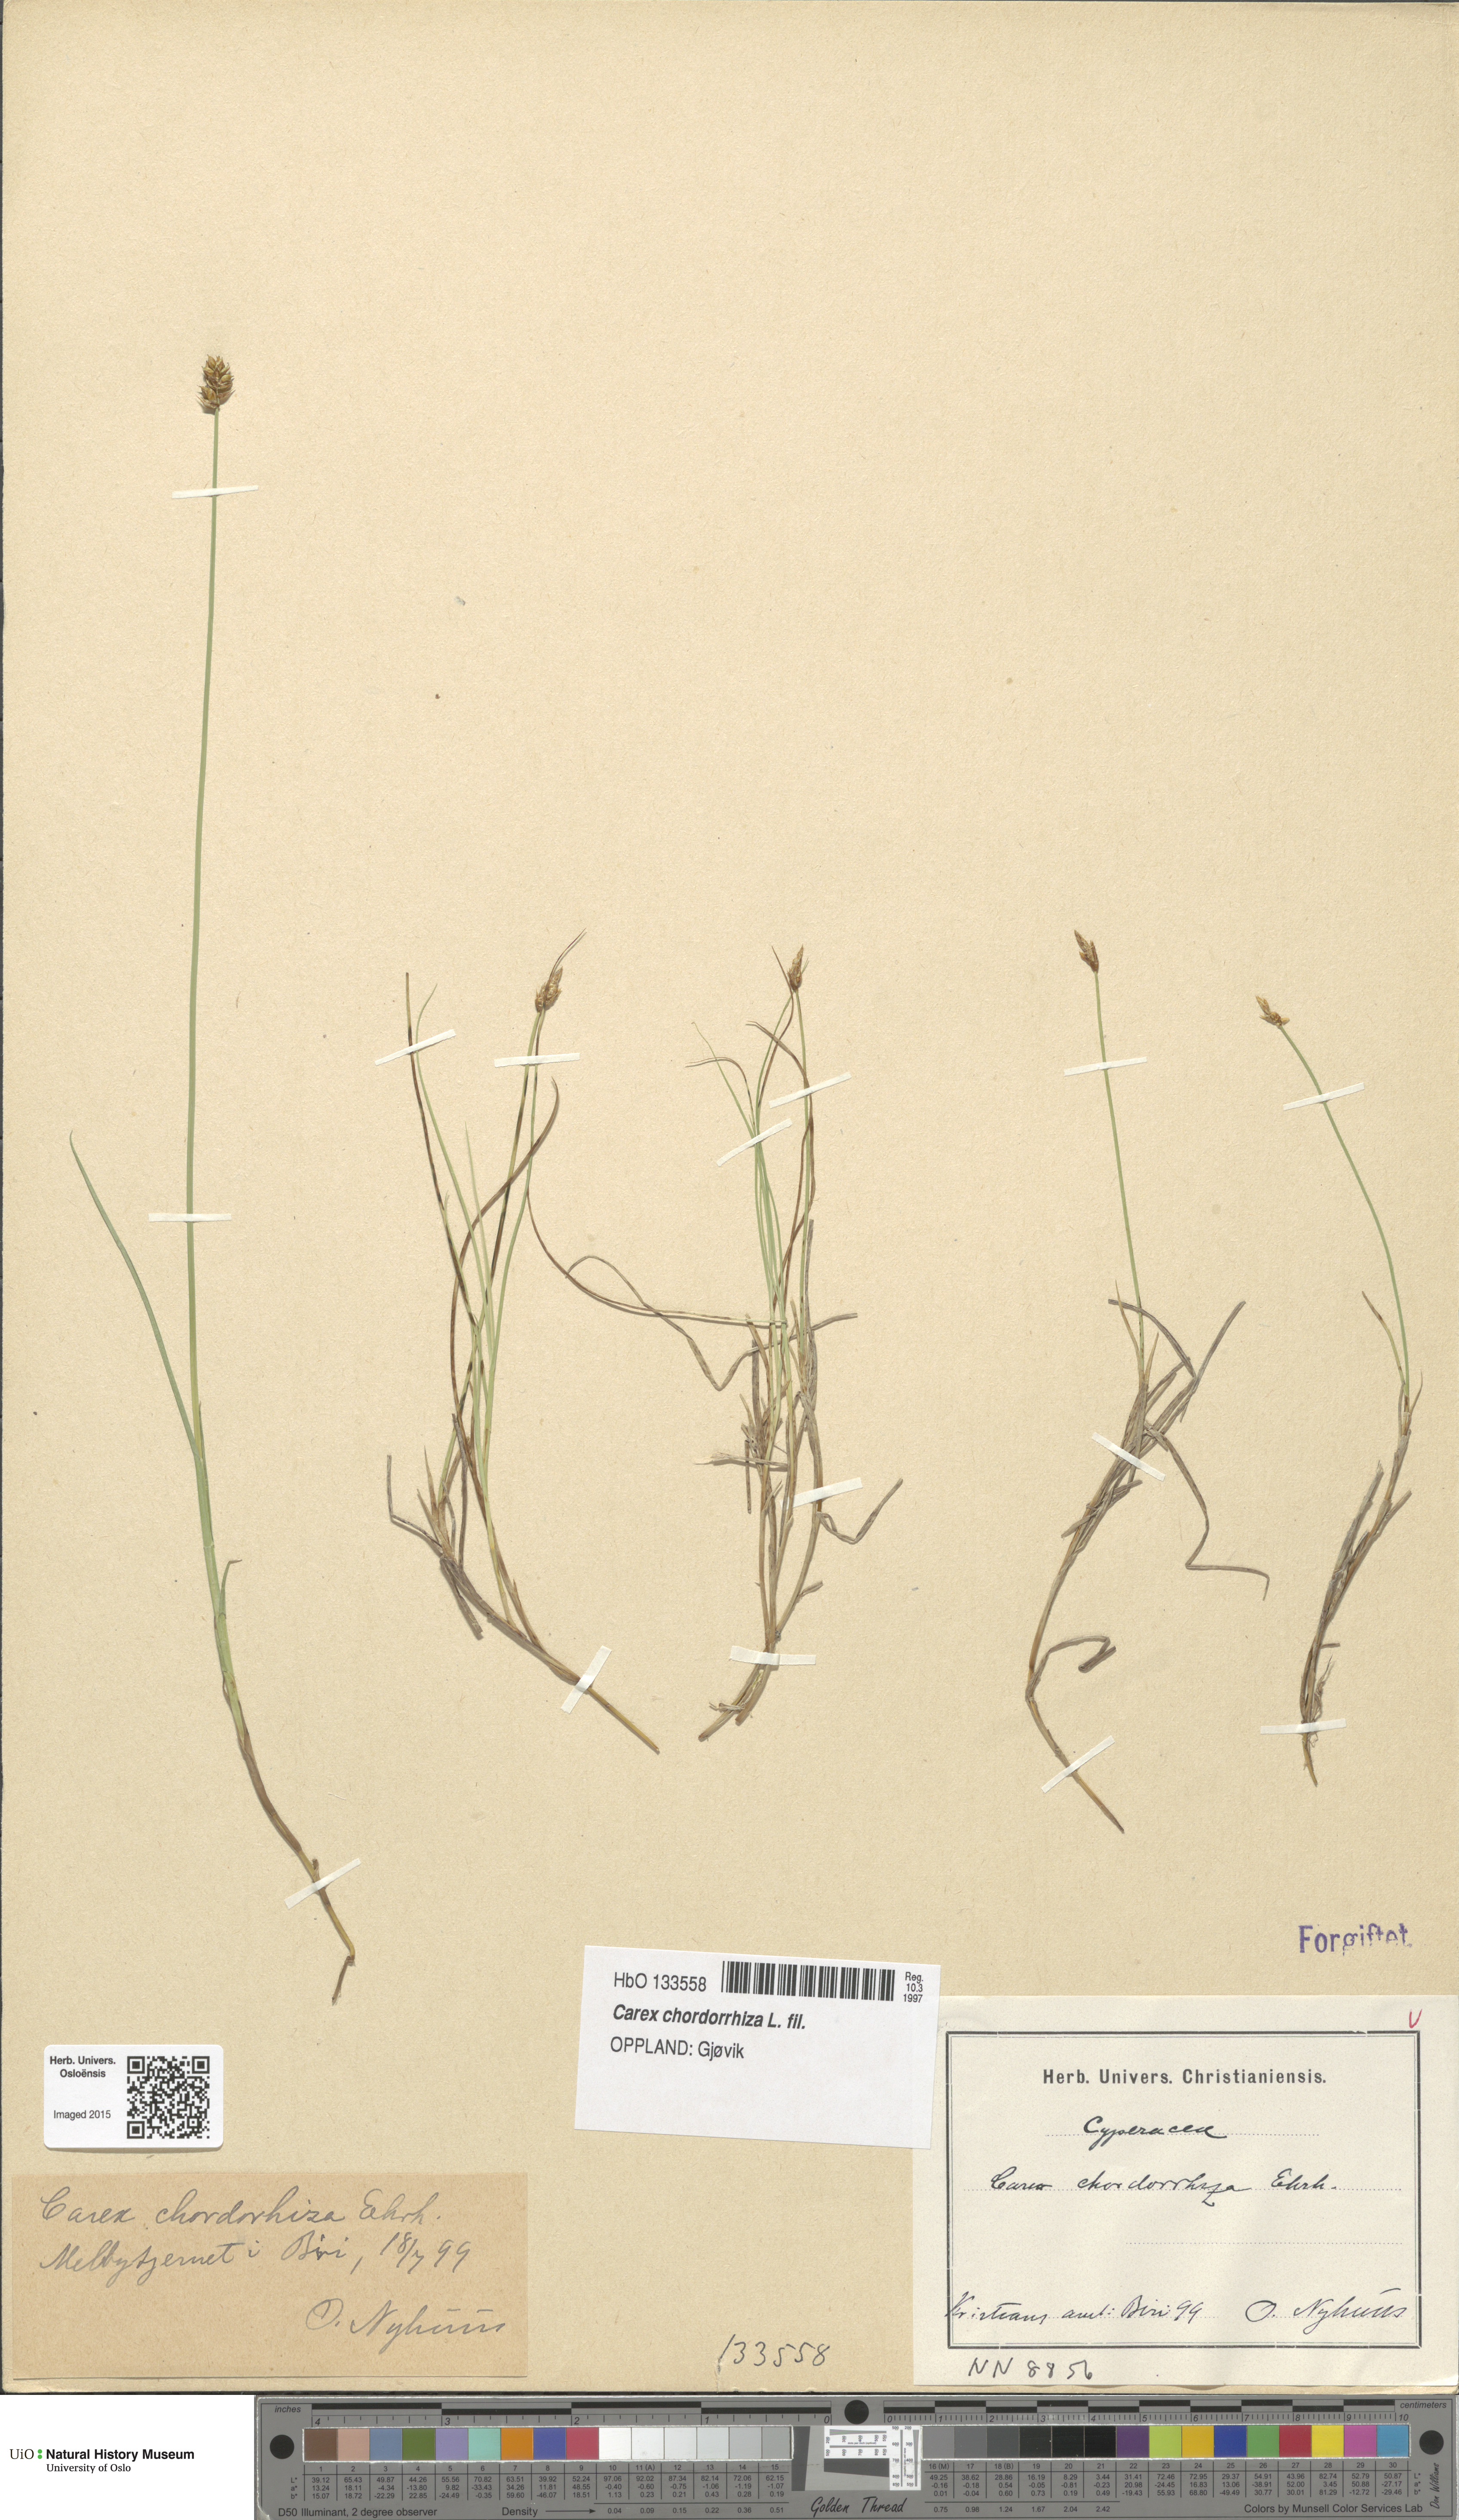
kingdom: Plantae
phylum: Tracheophyta
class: Liliopsida
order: Poales
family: Cyperaceae
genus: Carex
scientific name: Carex chordorrhiza
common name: String sedge
